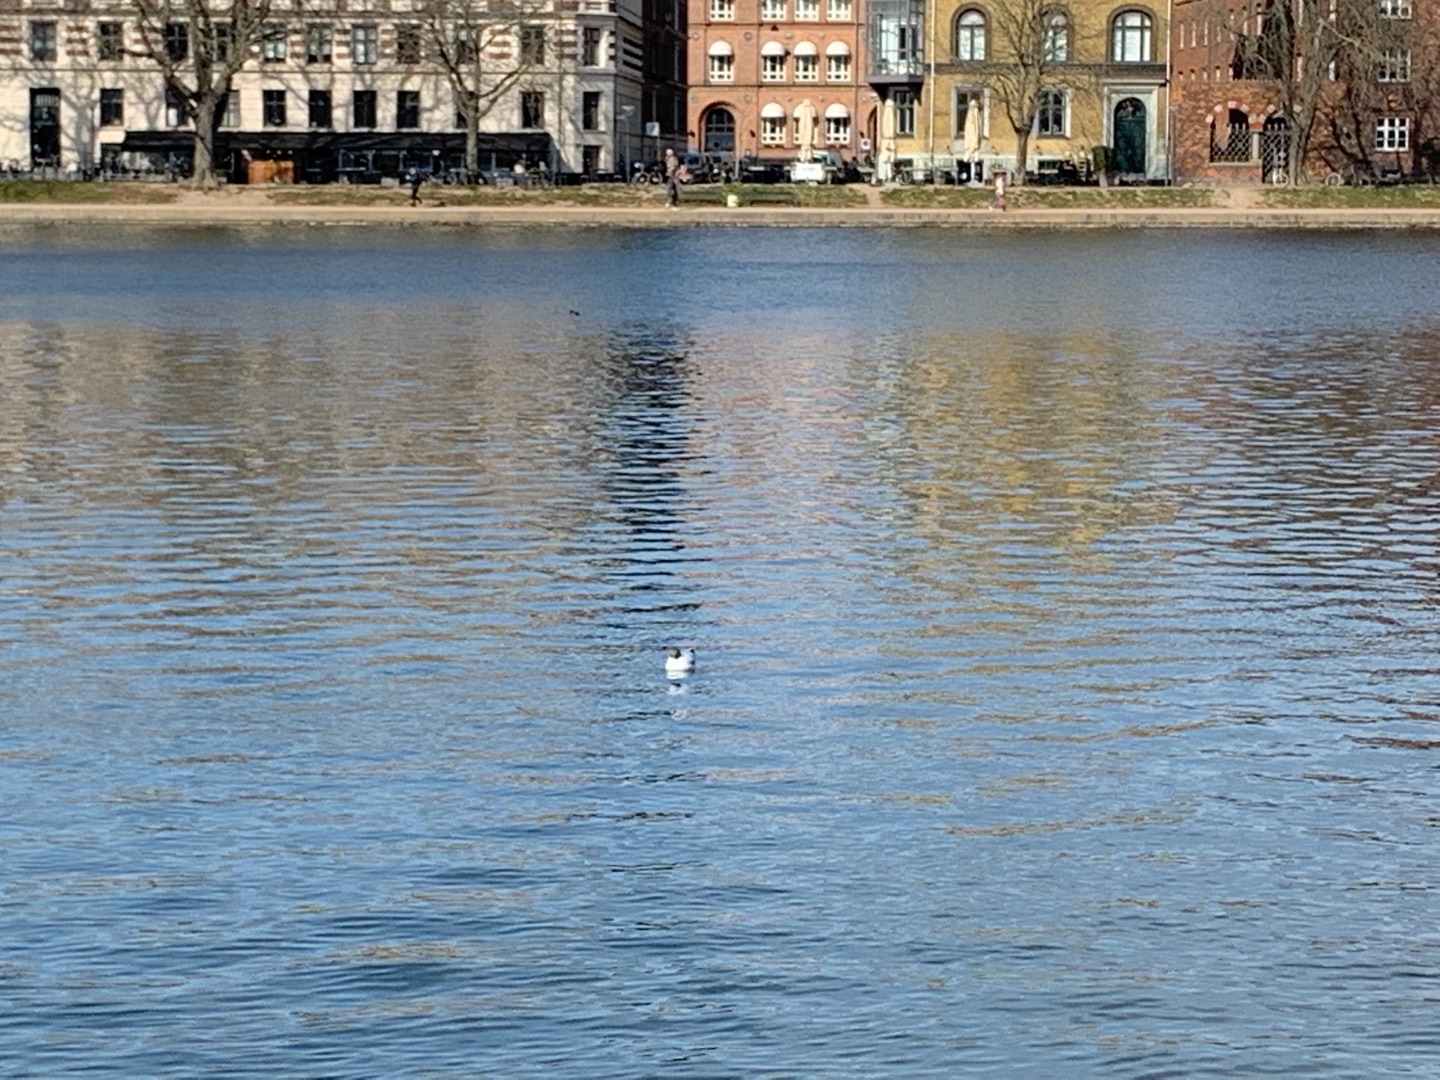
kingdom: Animalia
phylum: Chordata
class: Aves
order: Charadriiformes
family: Laridae
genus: Chroicocephalus
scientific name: Chroicocephalus ridibundus
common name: Hættemåge
